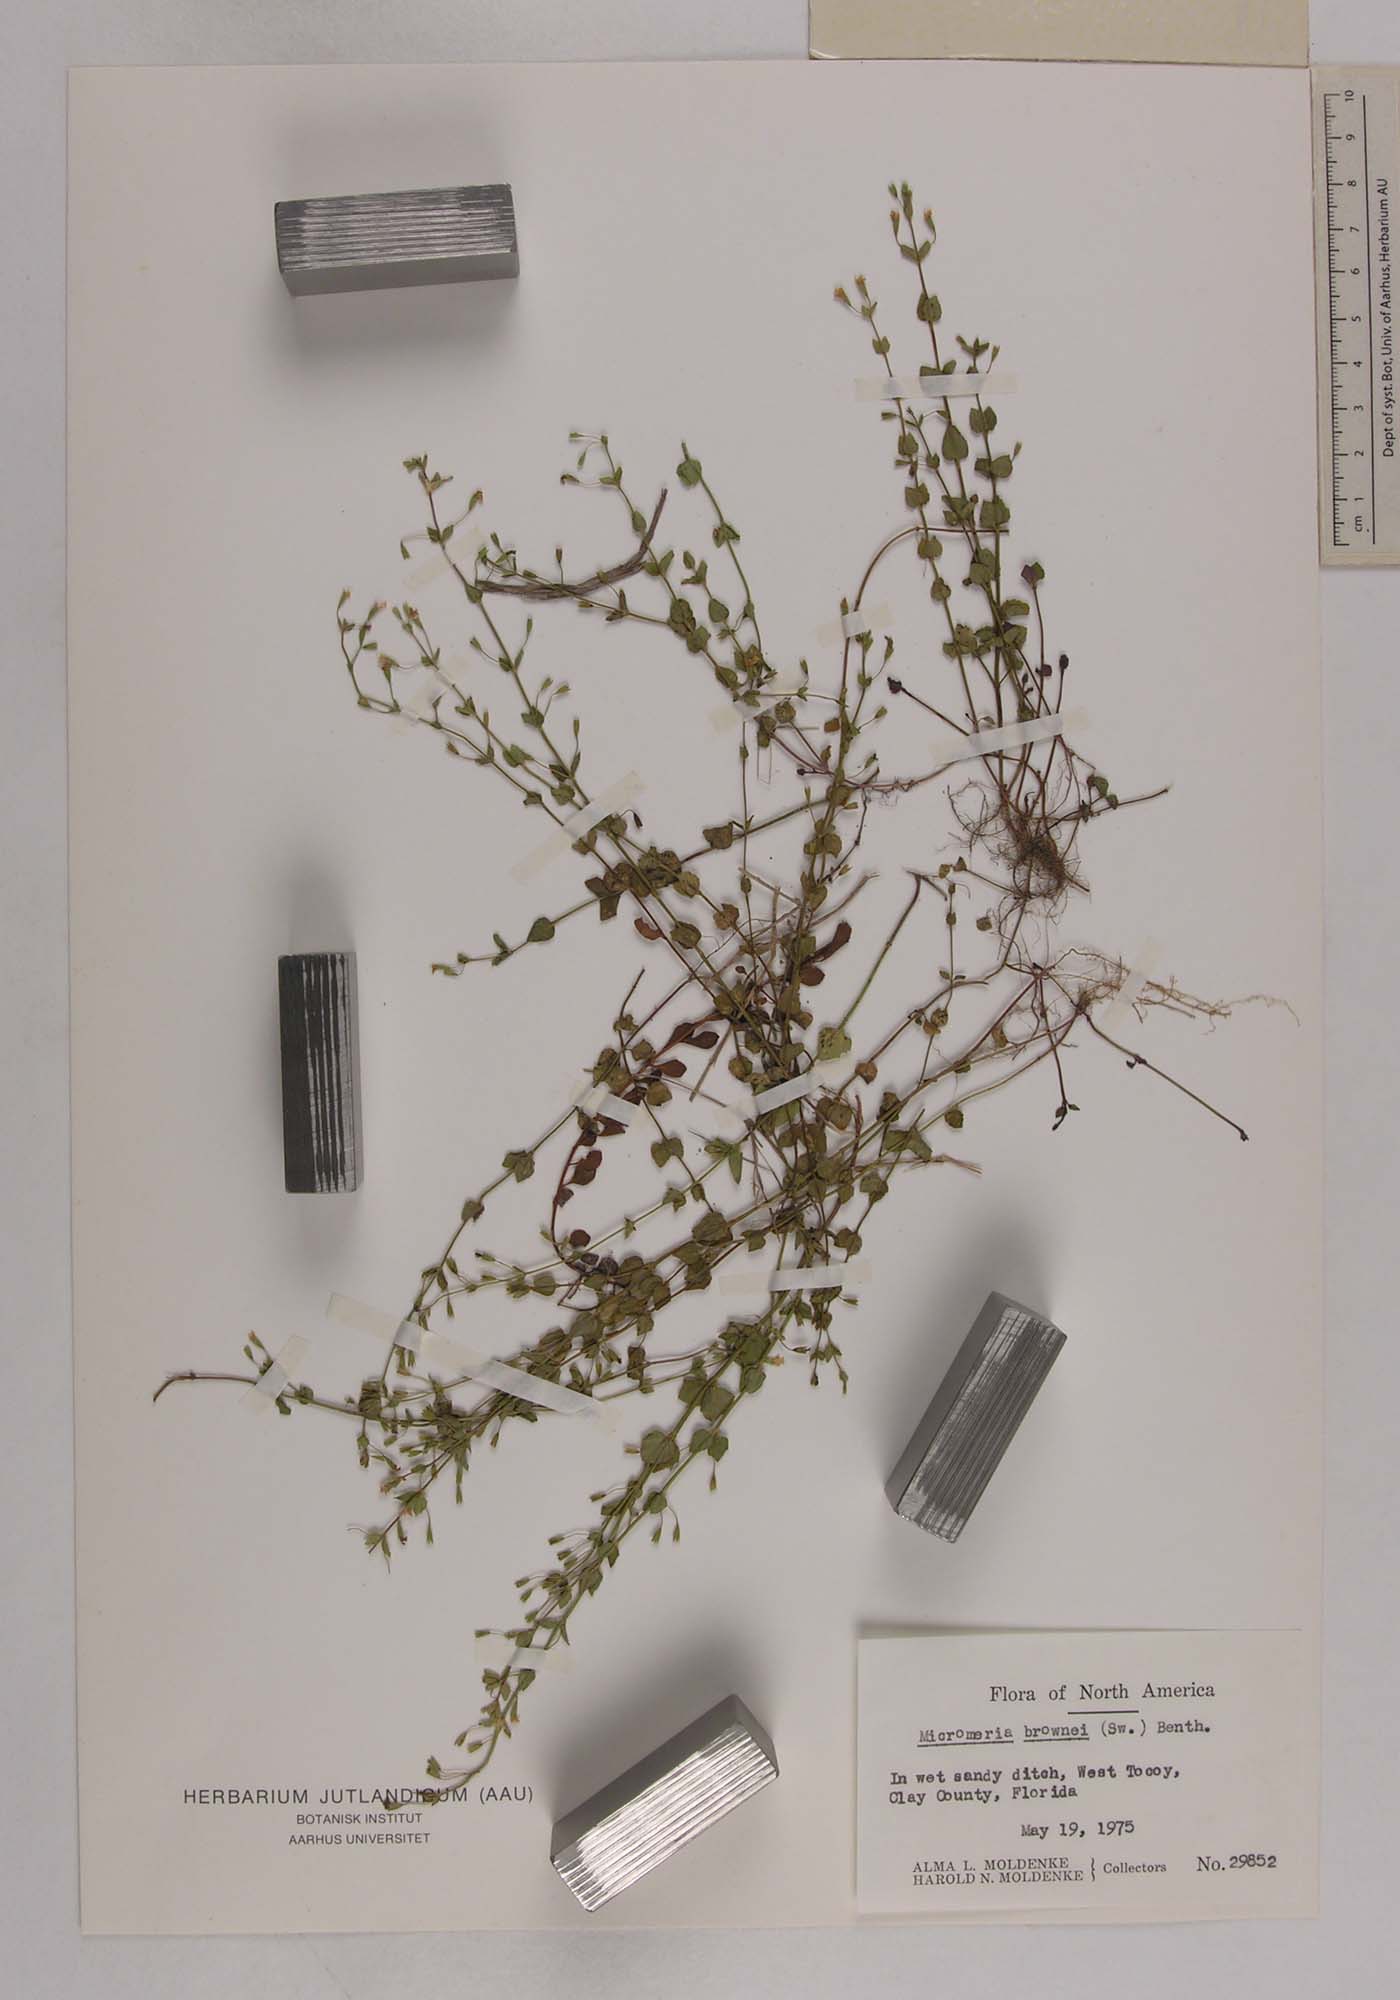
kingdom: Plantae
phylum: Tracheophyta
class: Magnoliopsida
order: Lamiales
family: Lamiaceae
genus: Clinopodium
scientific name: Clinopodium brownei
